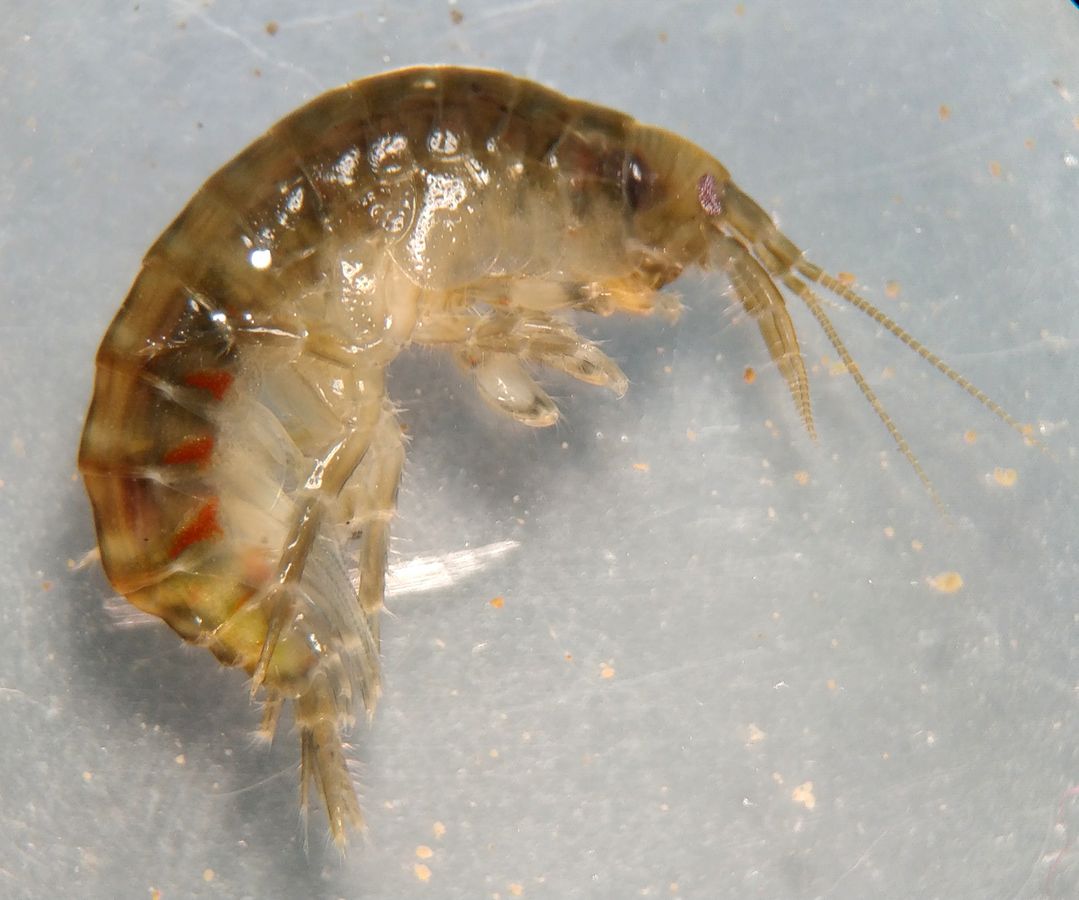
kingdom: Animalia
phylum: Arthropoda
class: Malacostraca
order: Amphipoda
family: Gammaridae
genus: Gammarus
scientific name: Gammarus duebeni
